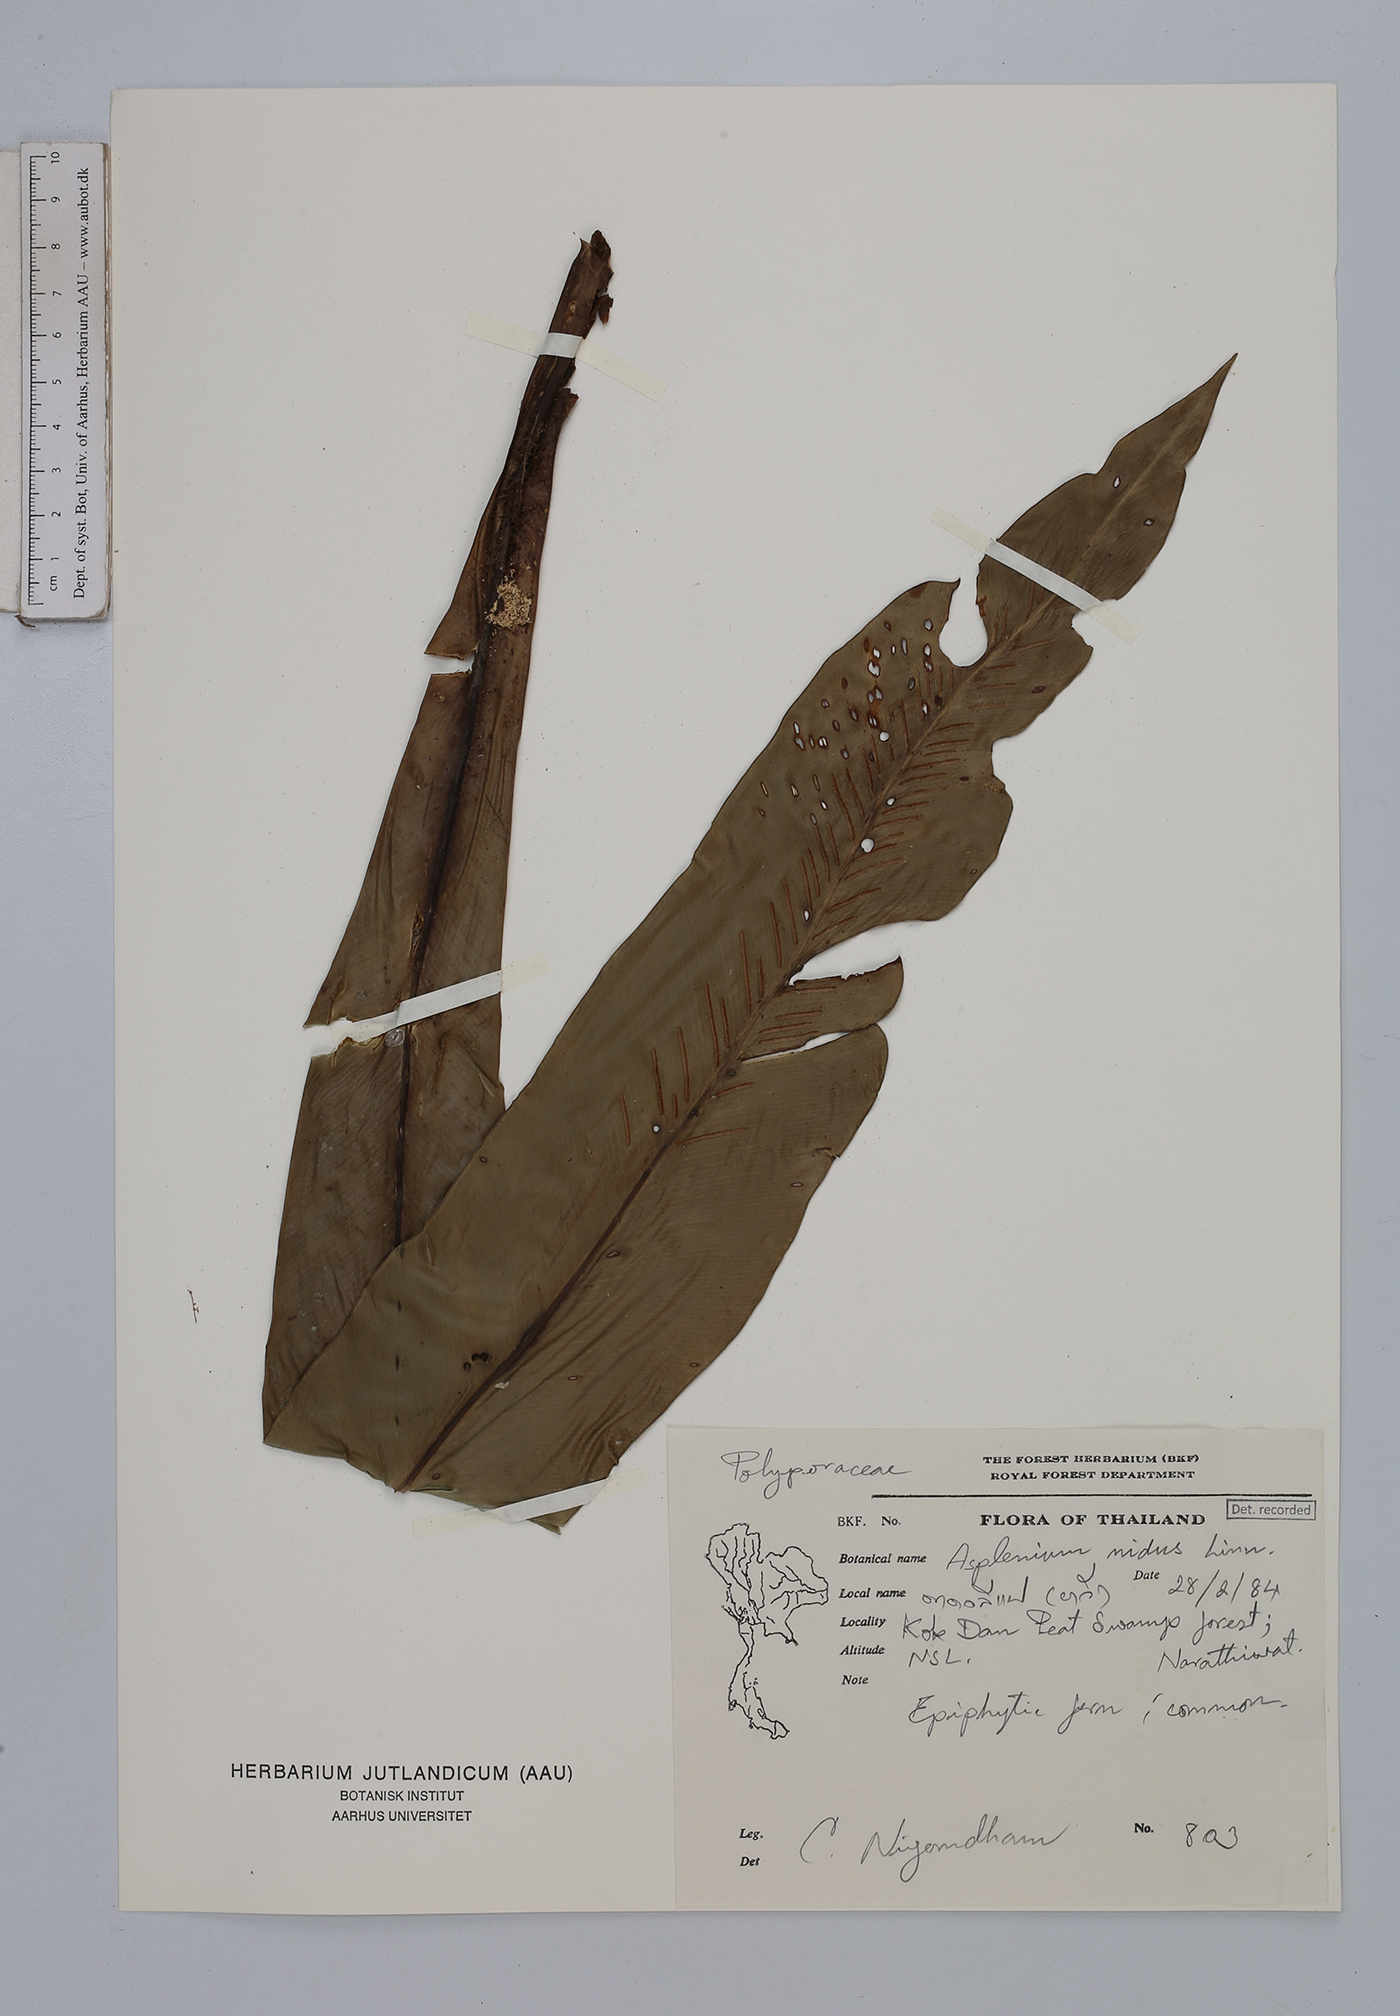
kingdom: Plantae
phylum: Tracheophyta
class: Polypodiopsida
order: Polypodiales
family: Aspleniaceae
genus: Asplenium
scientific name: Asplenium nidus
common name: Bird's-nest fern
